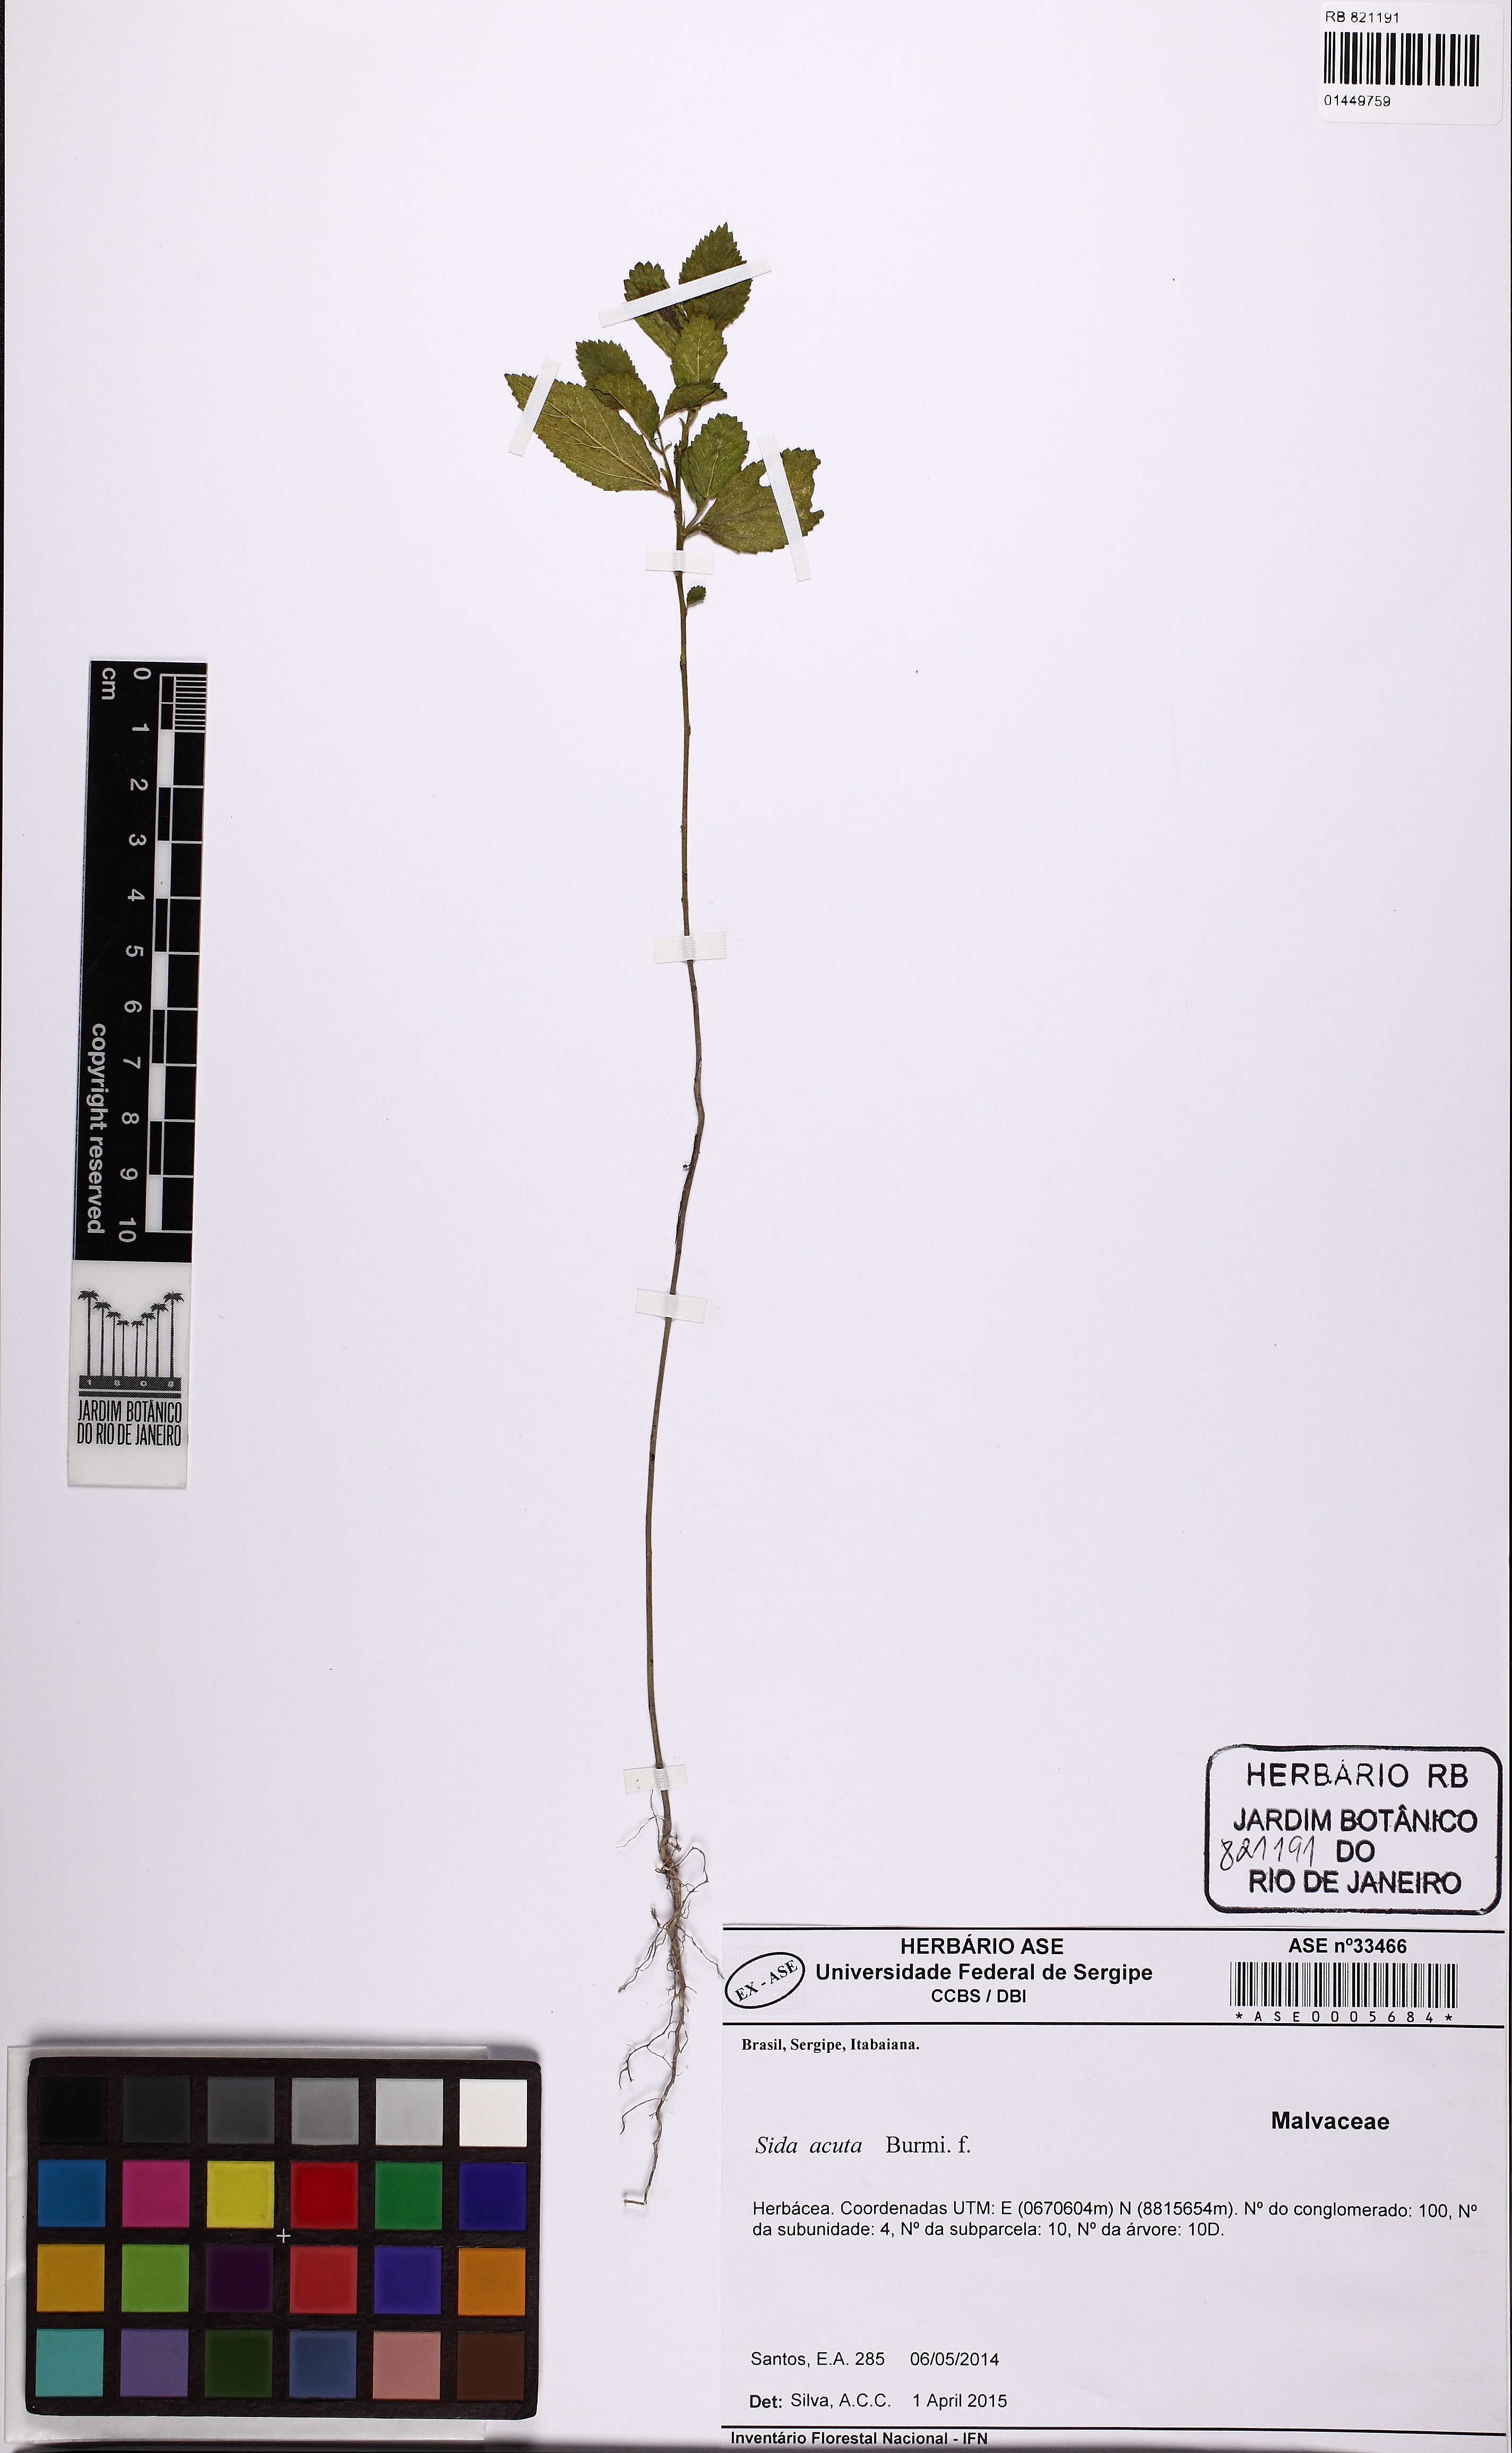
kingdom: Plantae
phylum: Tracheophyta
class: Magnoliopsida
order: Malvales
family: Malvaceae
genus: Sida
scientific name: Sida acuta
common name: Common wireweed
